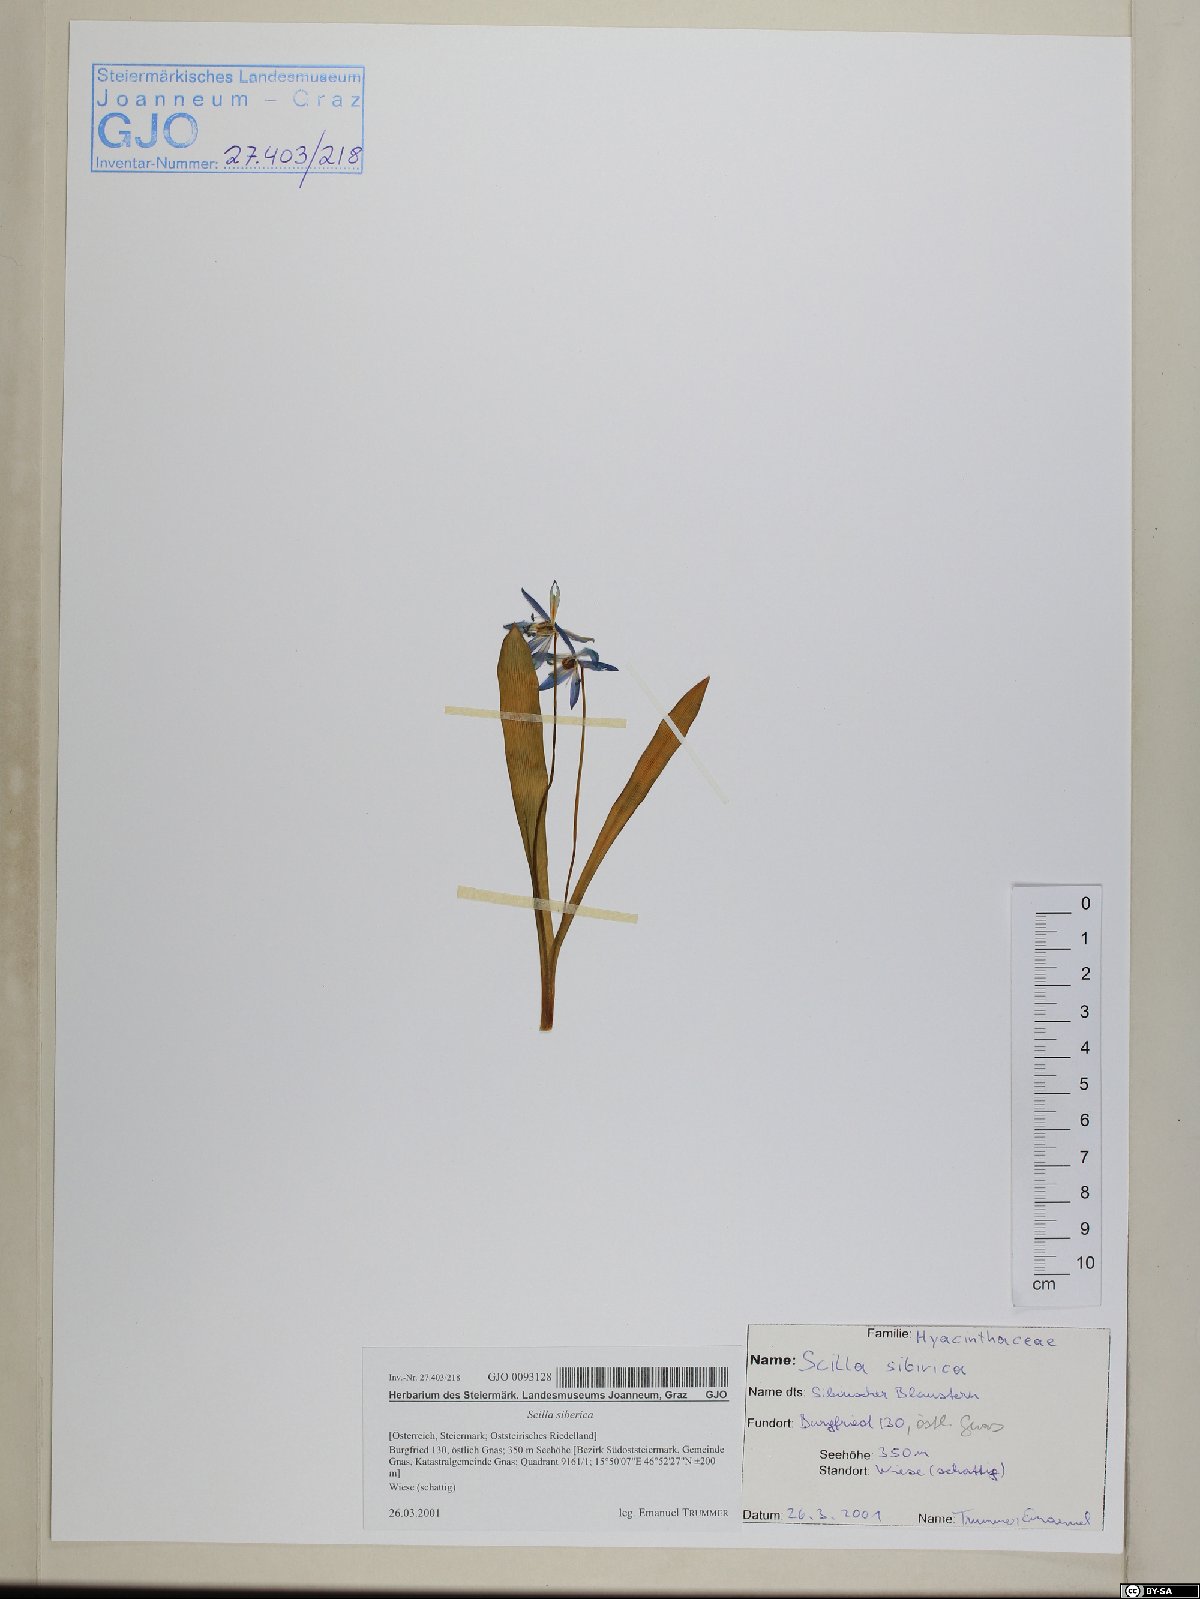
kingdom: Plantae
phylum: Tracheophyta
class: Liliopsida
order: Asparagales
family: Asparagaceae
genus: Scilla
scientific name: Scilla siberica
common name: Siberian squill
